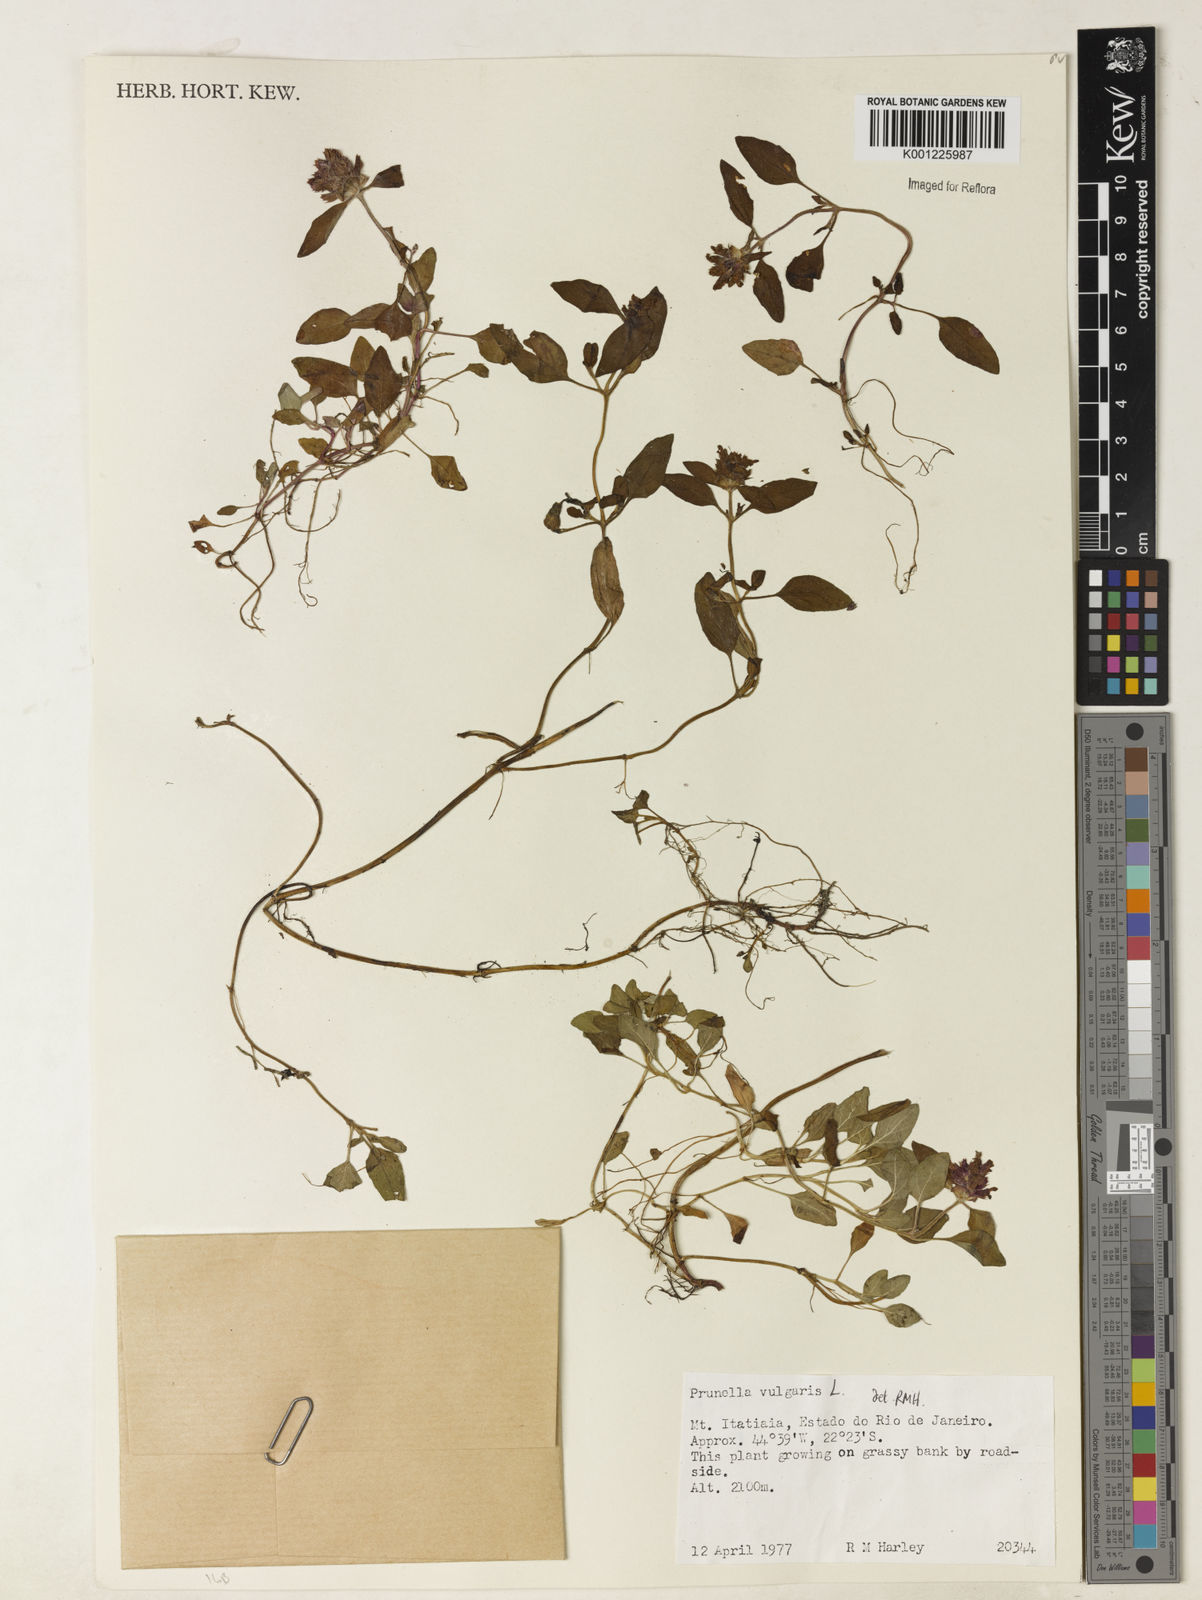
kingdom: Plantae
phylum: Tracheophyta
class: Magnoliopsida
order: Lamiales
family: Lamiaceae
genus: Prunella
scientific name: Prunella vulgaris
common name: Heal-all
